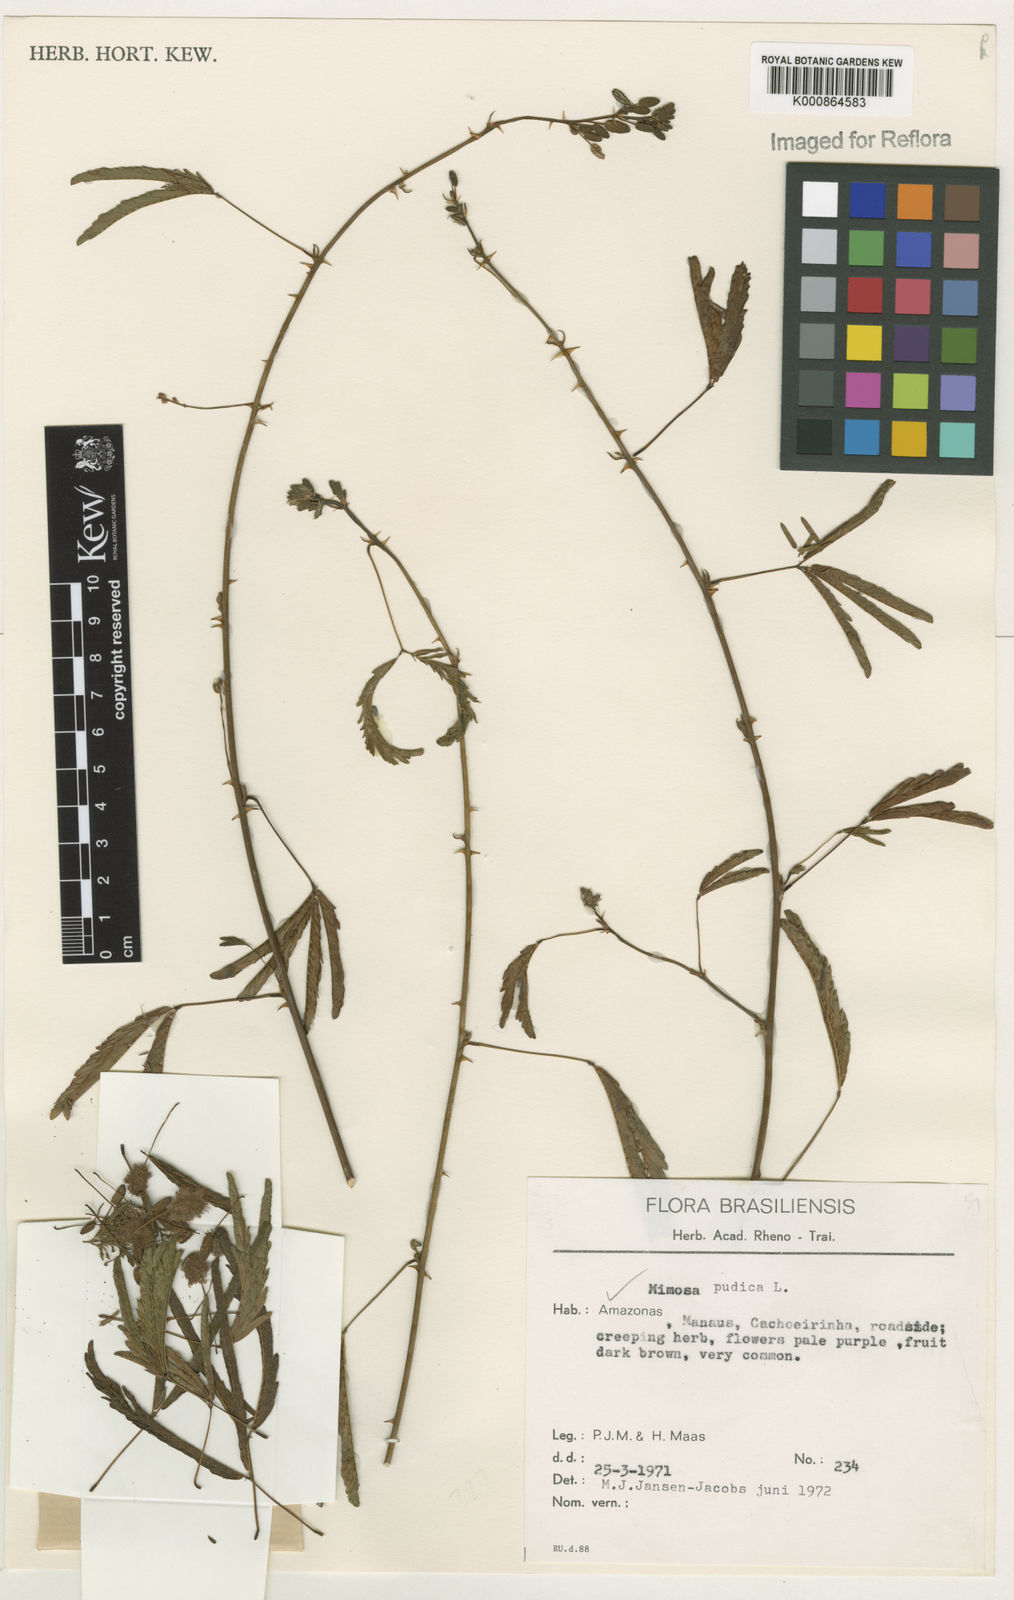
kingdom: Plantae
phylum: Tracheophyta
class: Magnoliopsida
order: Fabales
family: Fabaceae
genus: Mimosa
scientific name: Mimosa pudica
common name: Sensitive plant
